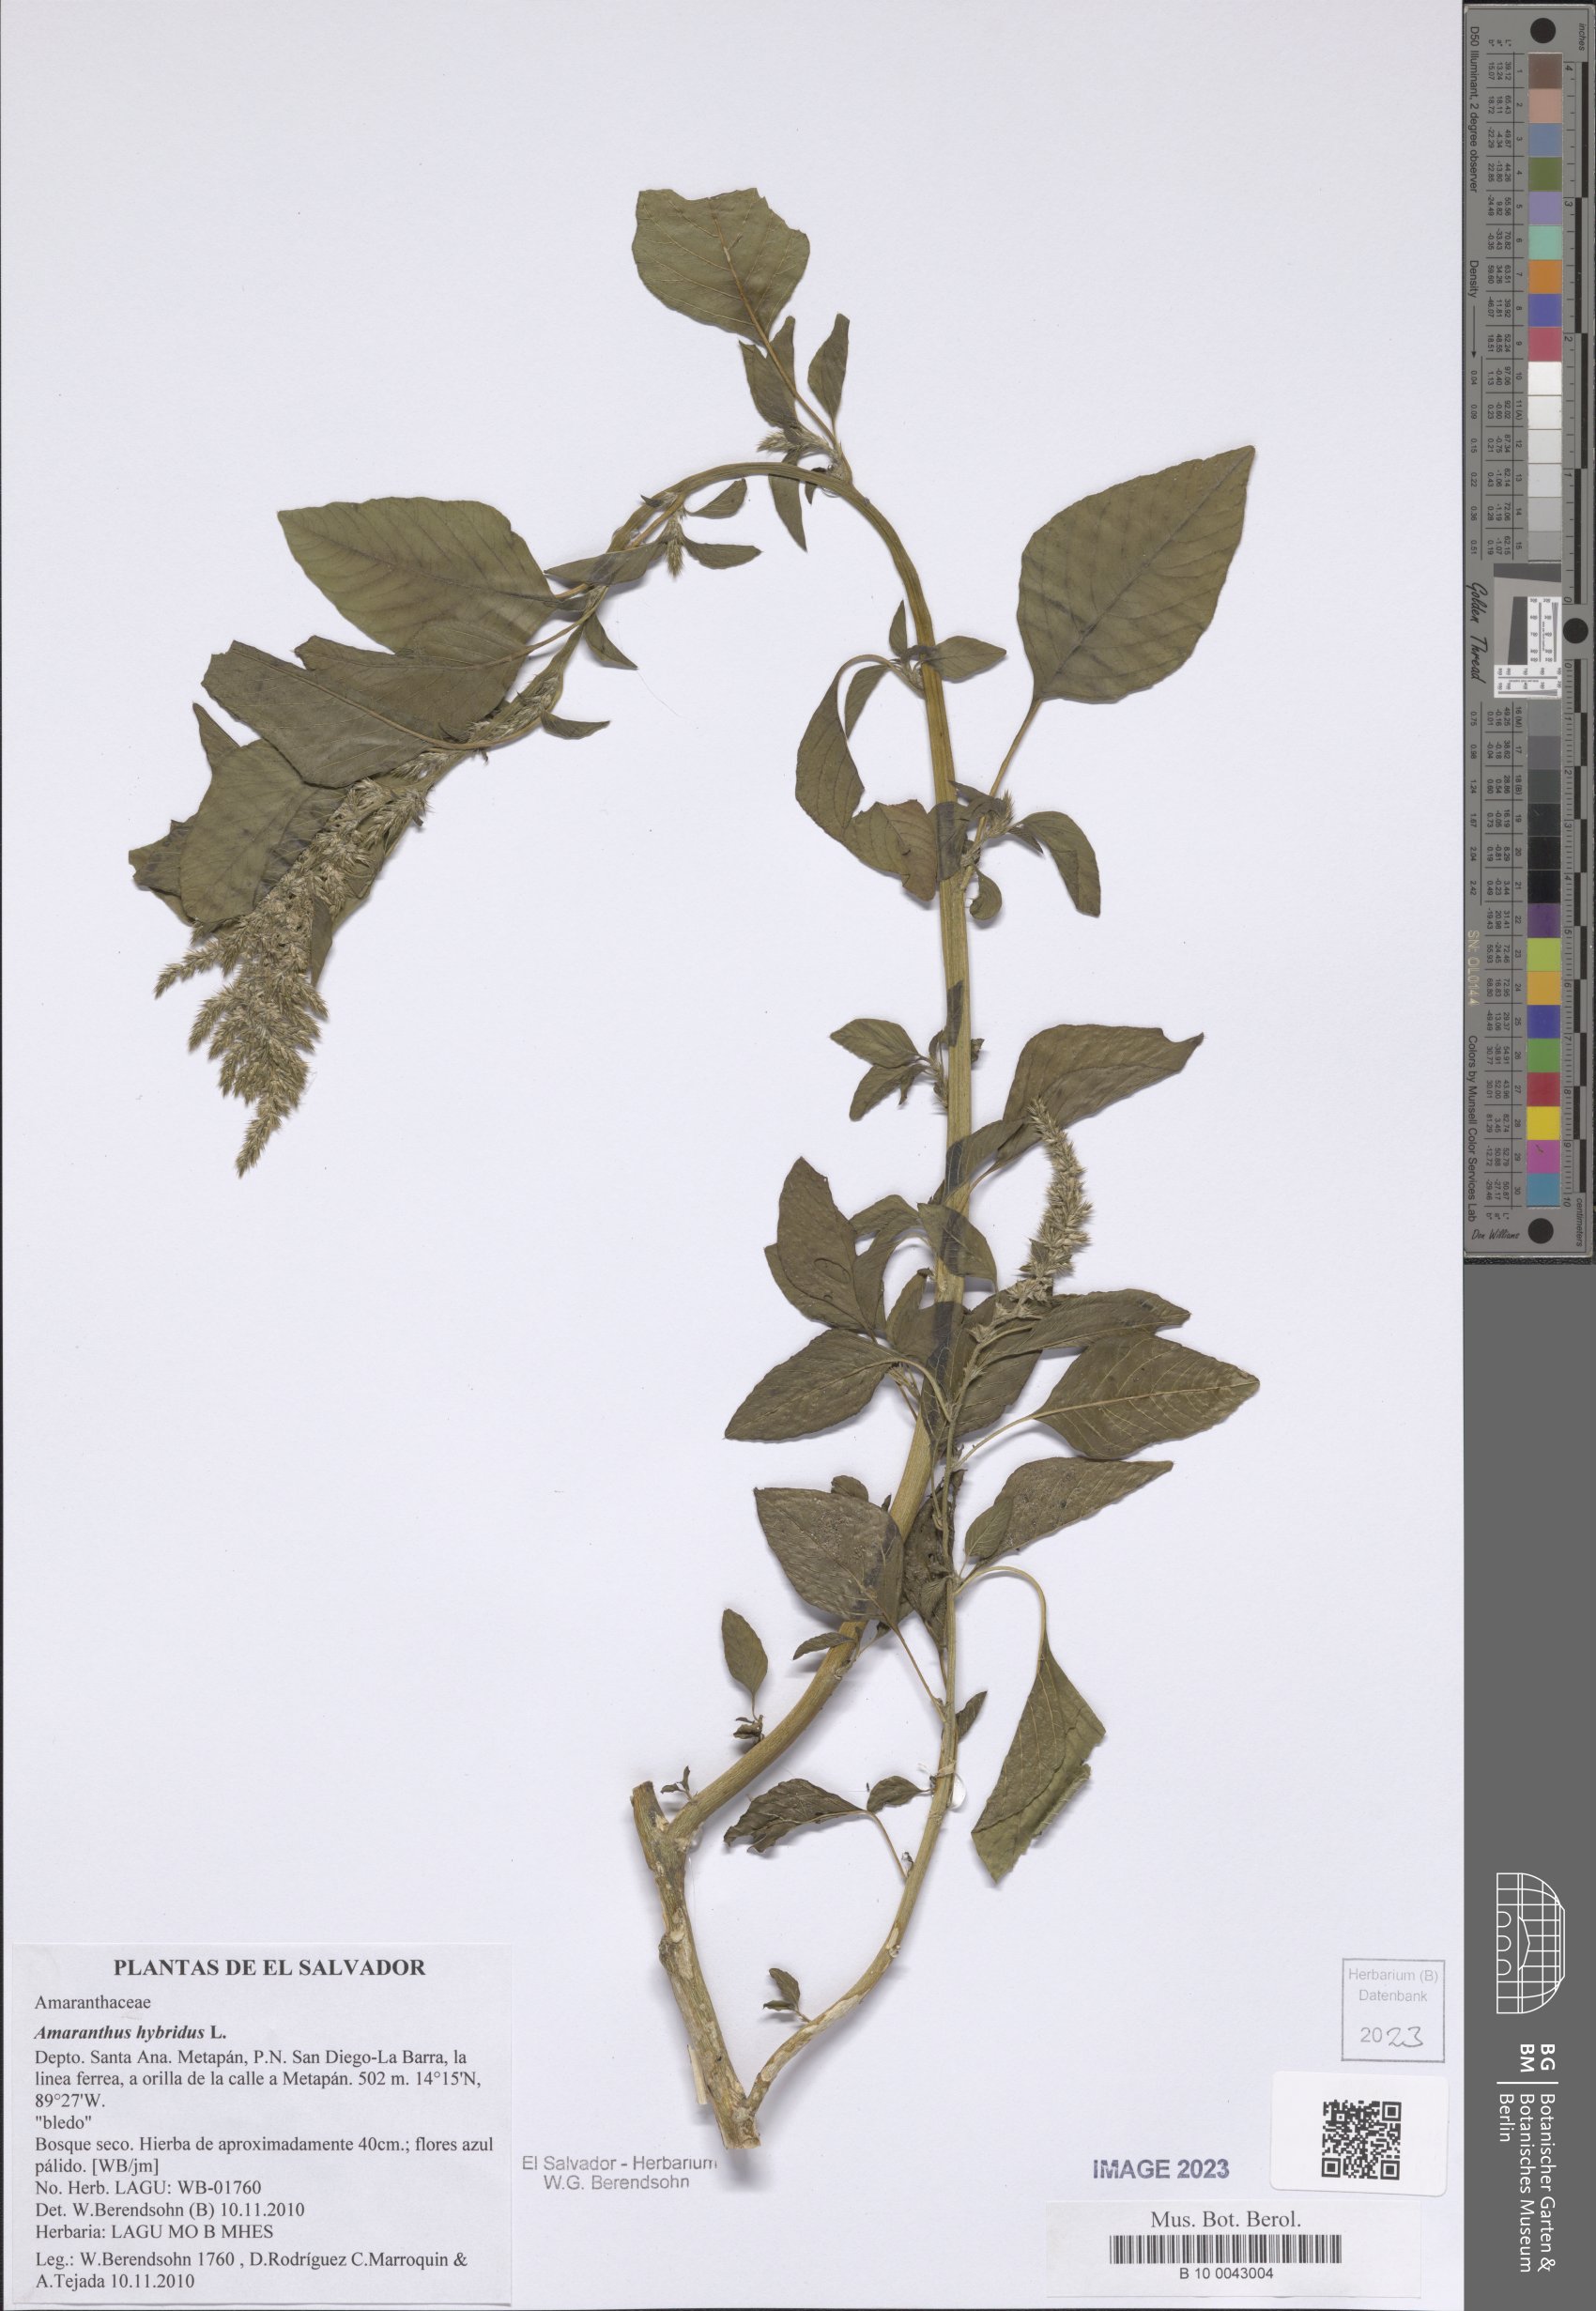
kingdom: Plantae
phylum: Tracheophyta
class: Magnoliopsida
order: Caryophyllales
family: Amaranthaceae
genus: Amaranthus
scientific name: Amaranthus hybridus
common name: Green amaranth
